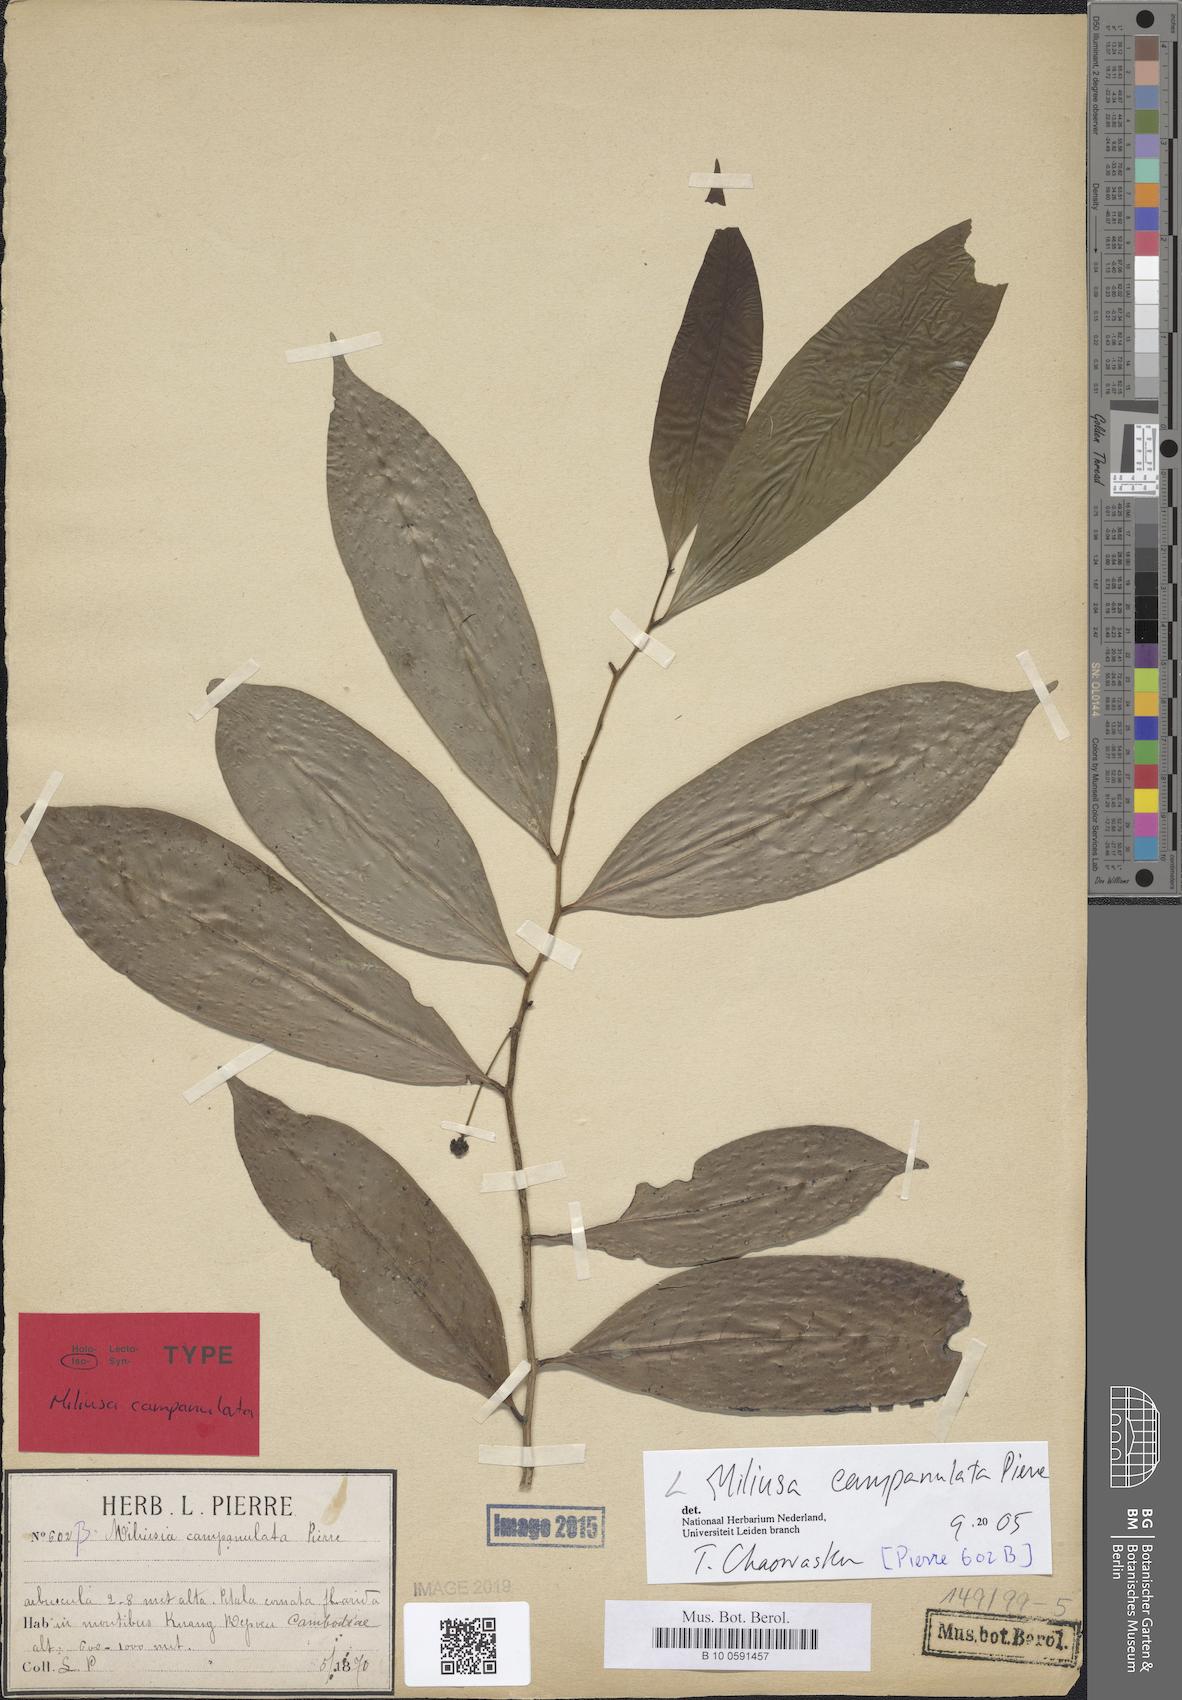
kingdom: Plantae
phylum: Tracheophyta
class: Magnoliopsida
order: Magnoliales
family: Annonaceae
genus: Miliusa
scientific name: Miliusa campanulata
